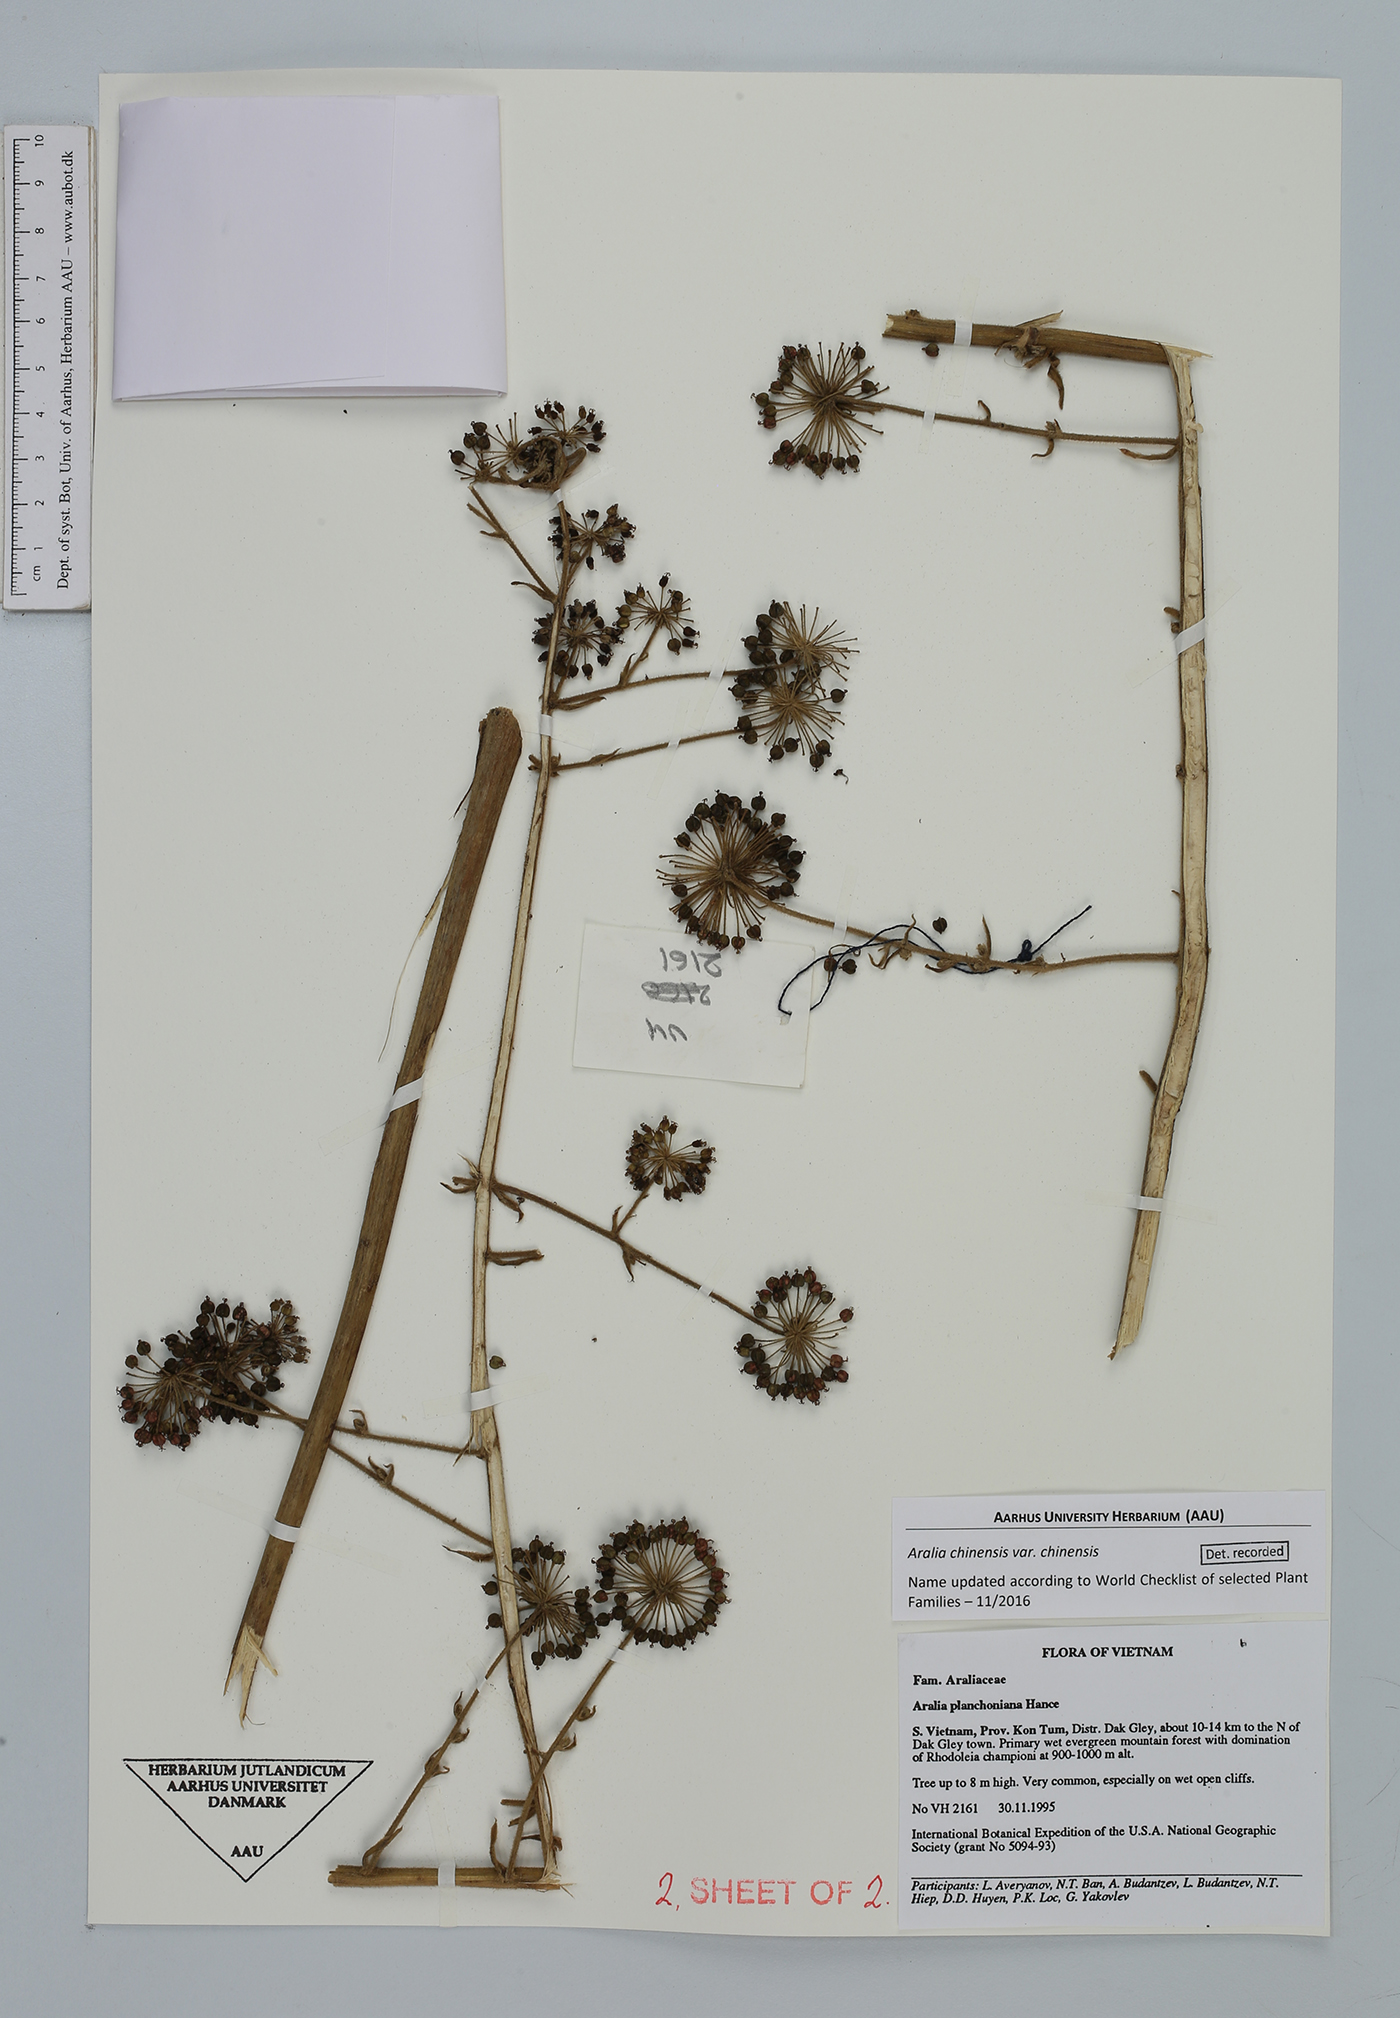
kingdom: Plantae
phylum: Tracheophyta
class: Magnoliopsida
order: Apiales
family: Araliaceae
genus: Aralia
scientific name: Aralia chinensis
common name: Chinese angelica-tree
